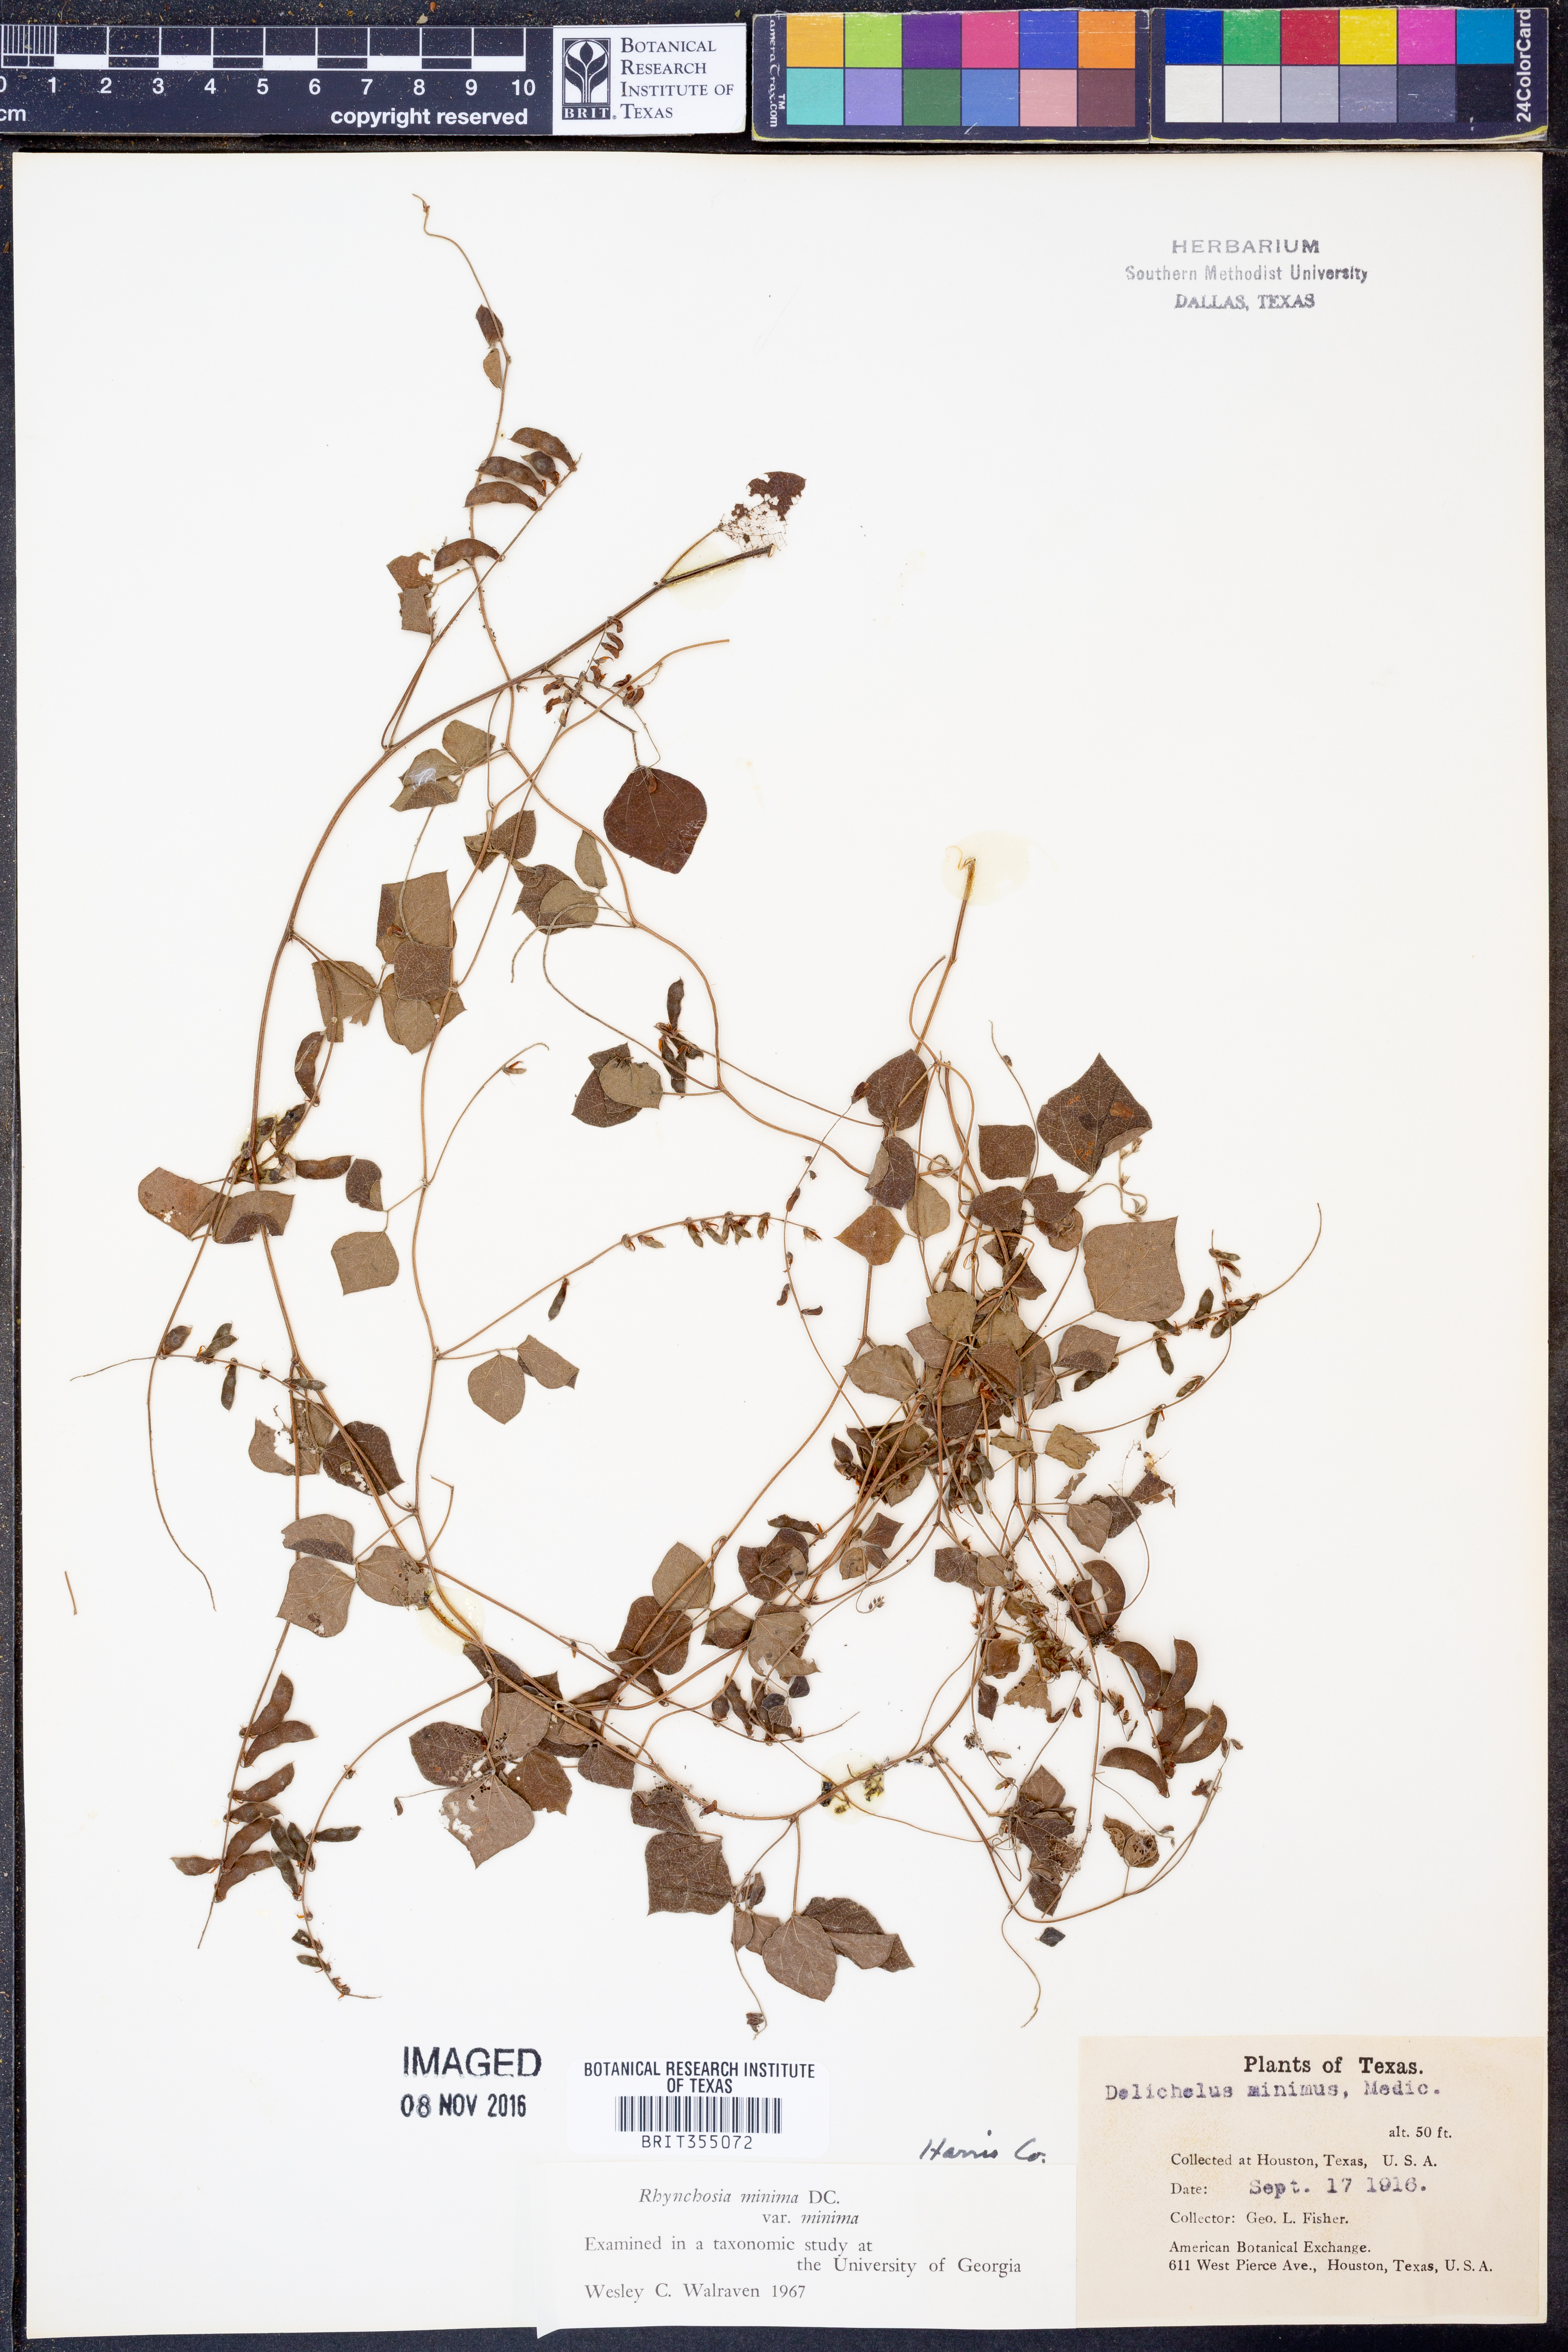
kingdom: Plantae
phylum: Tracheophyta
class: Magnoliopsida
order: Fabales
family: Fabaceae
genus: Rhynchosia
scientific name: Rhynchosia minima
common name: Least snoutbean
